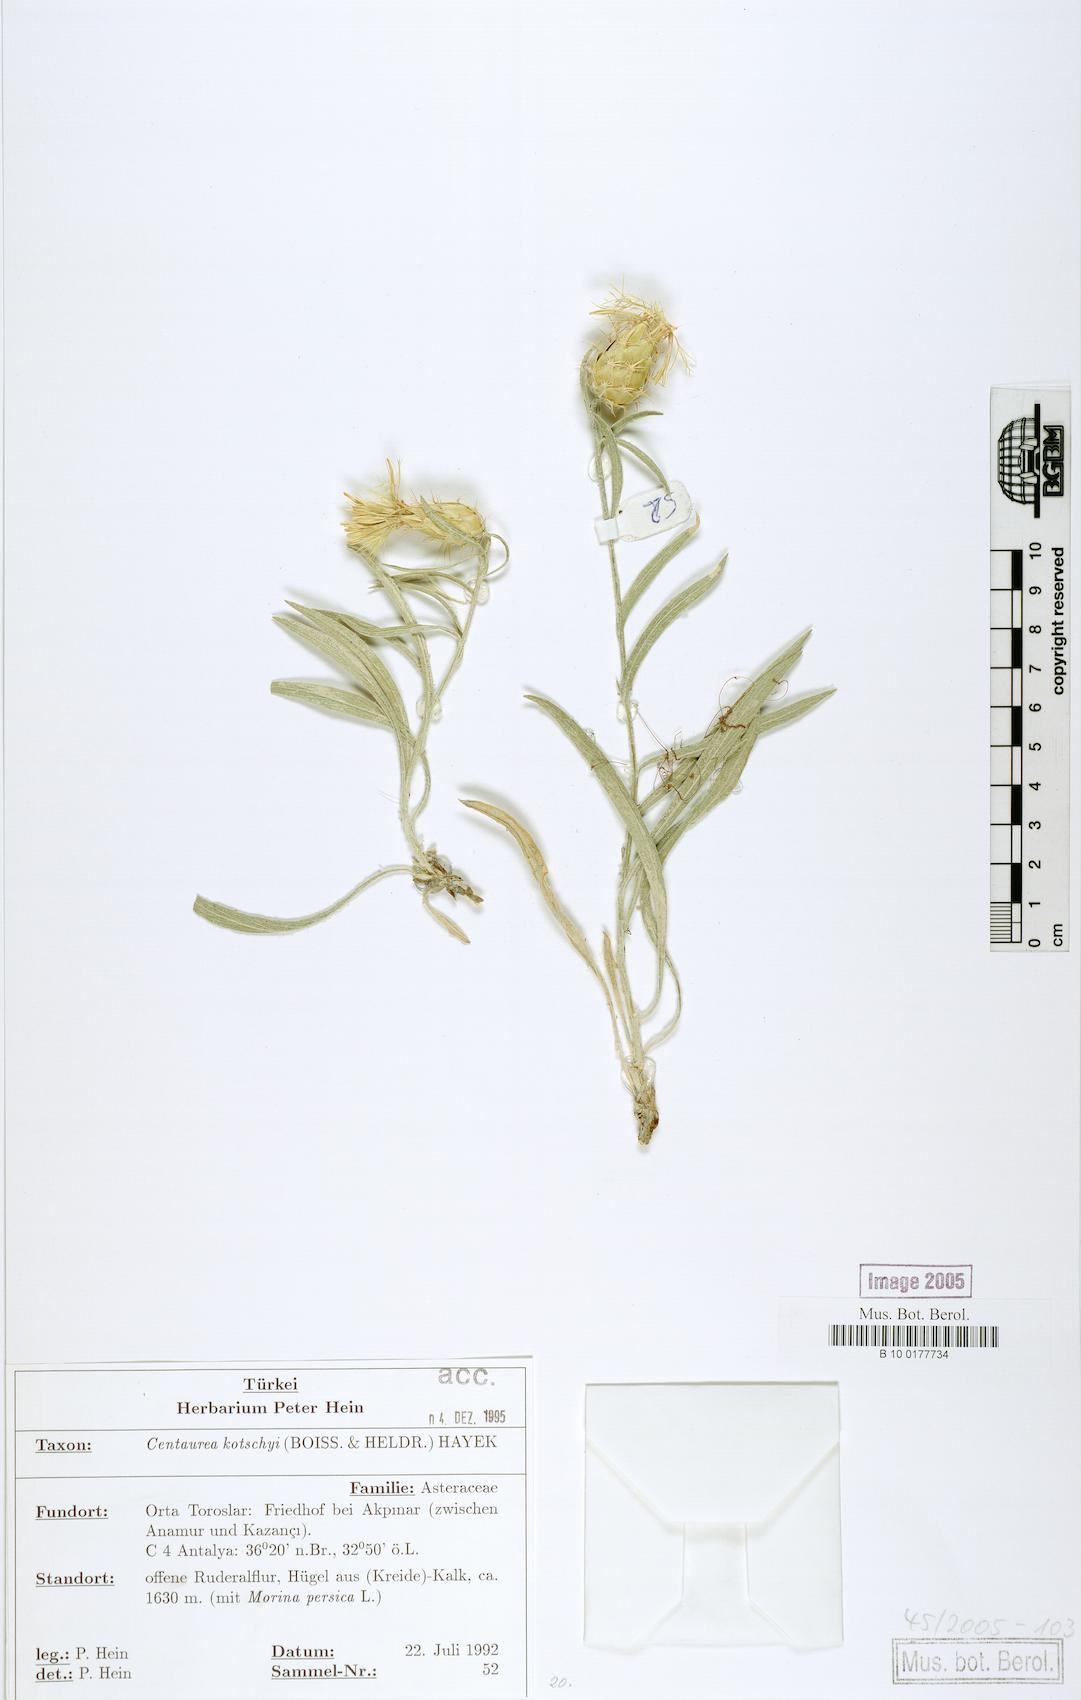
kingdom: Plantae
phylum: Tracheophyta
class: Magnoliopsida
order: Asterales
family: Asteraceae
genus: Centaurea
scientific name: Centaurea kotschyi
